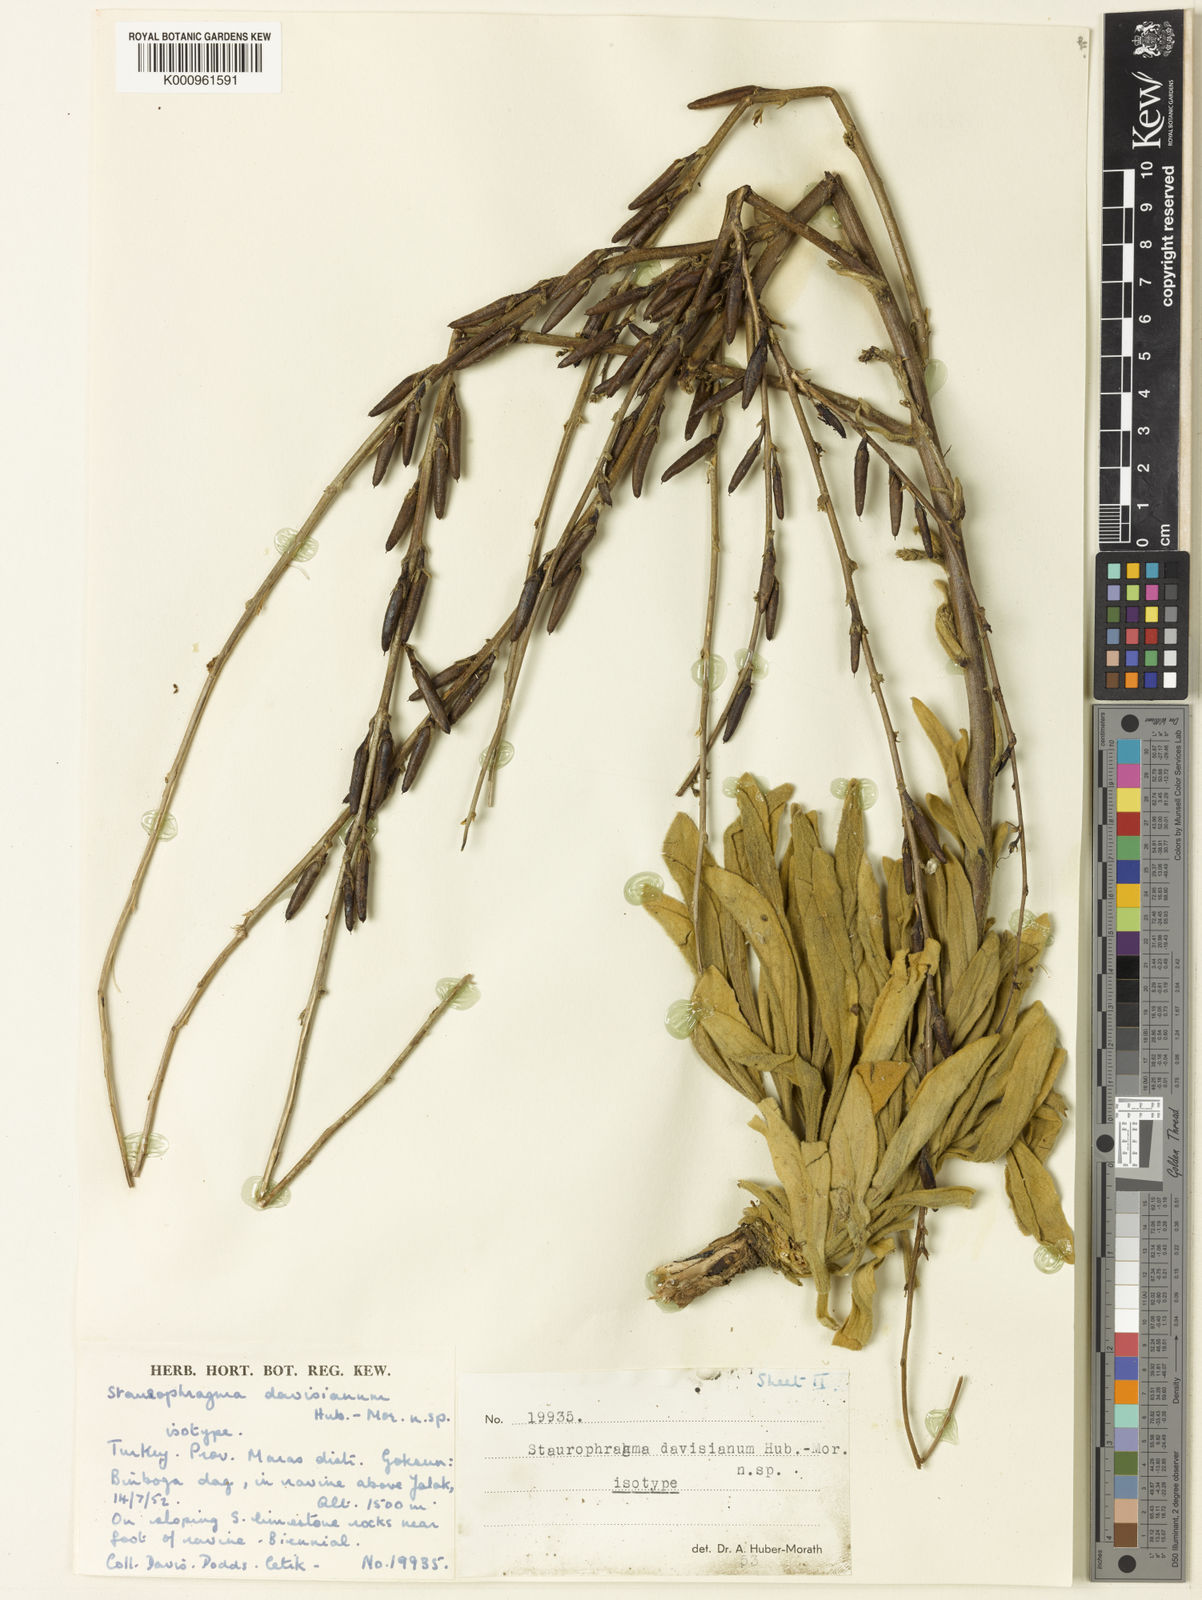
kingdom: Plantae
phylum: Tracheophyta
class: Magnoliopsida
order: Lamiales
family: Scrophulariaceae
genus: Verbascum
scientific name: Verbascum
